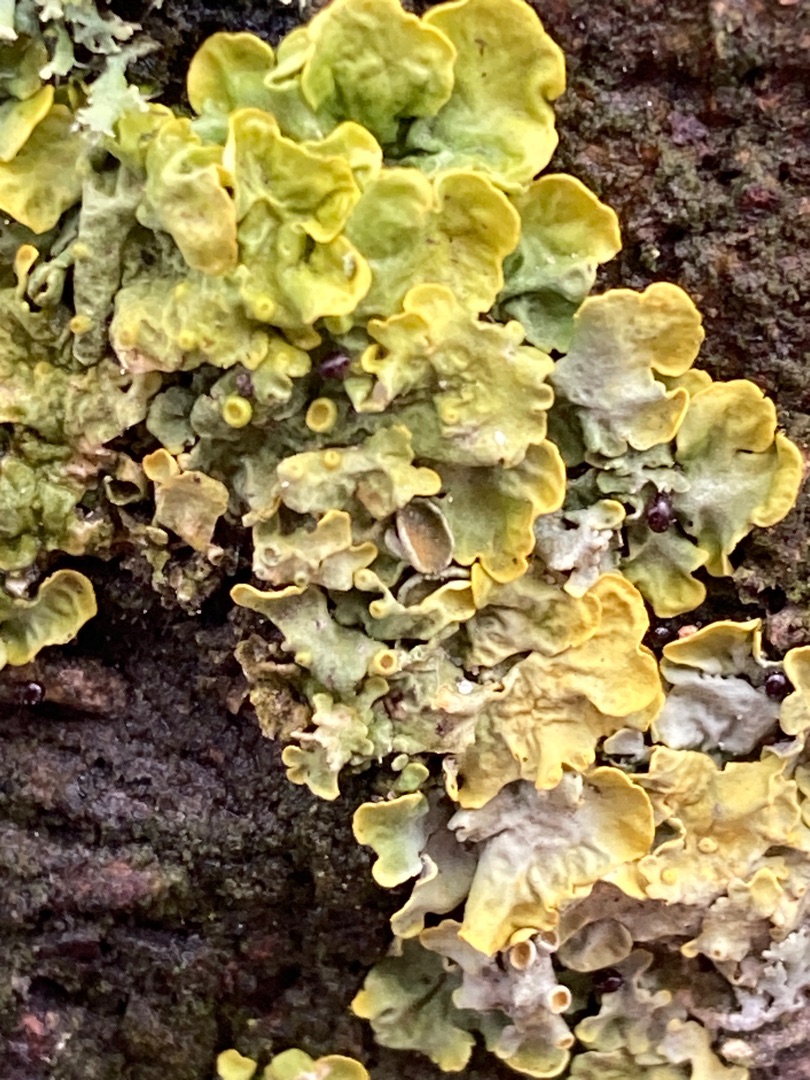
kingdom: Fungi
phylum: Ascomycota
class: Lecanoromycetes
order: Teloschistales
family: Teloschistaceae
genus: Xanthoria
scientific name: Xanthoria parietina
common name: Almindelig væggelav
